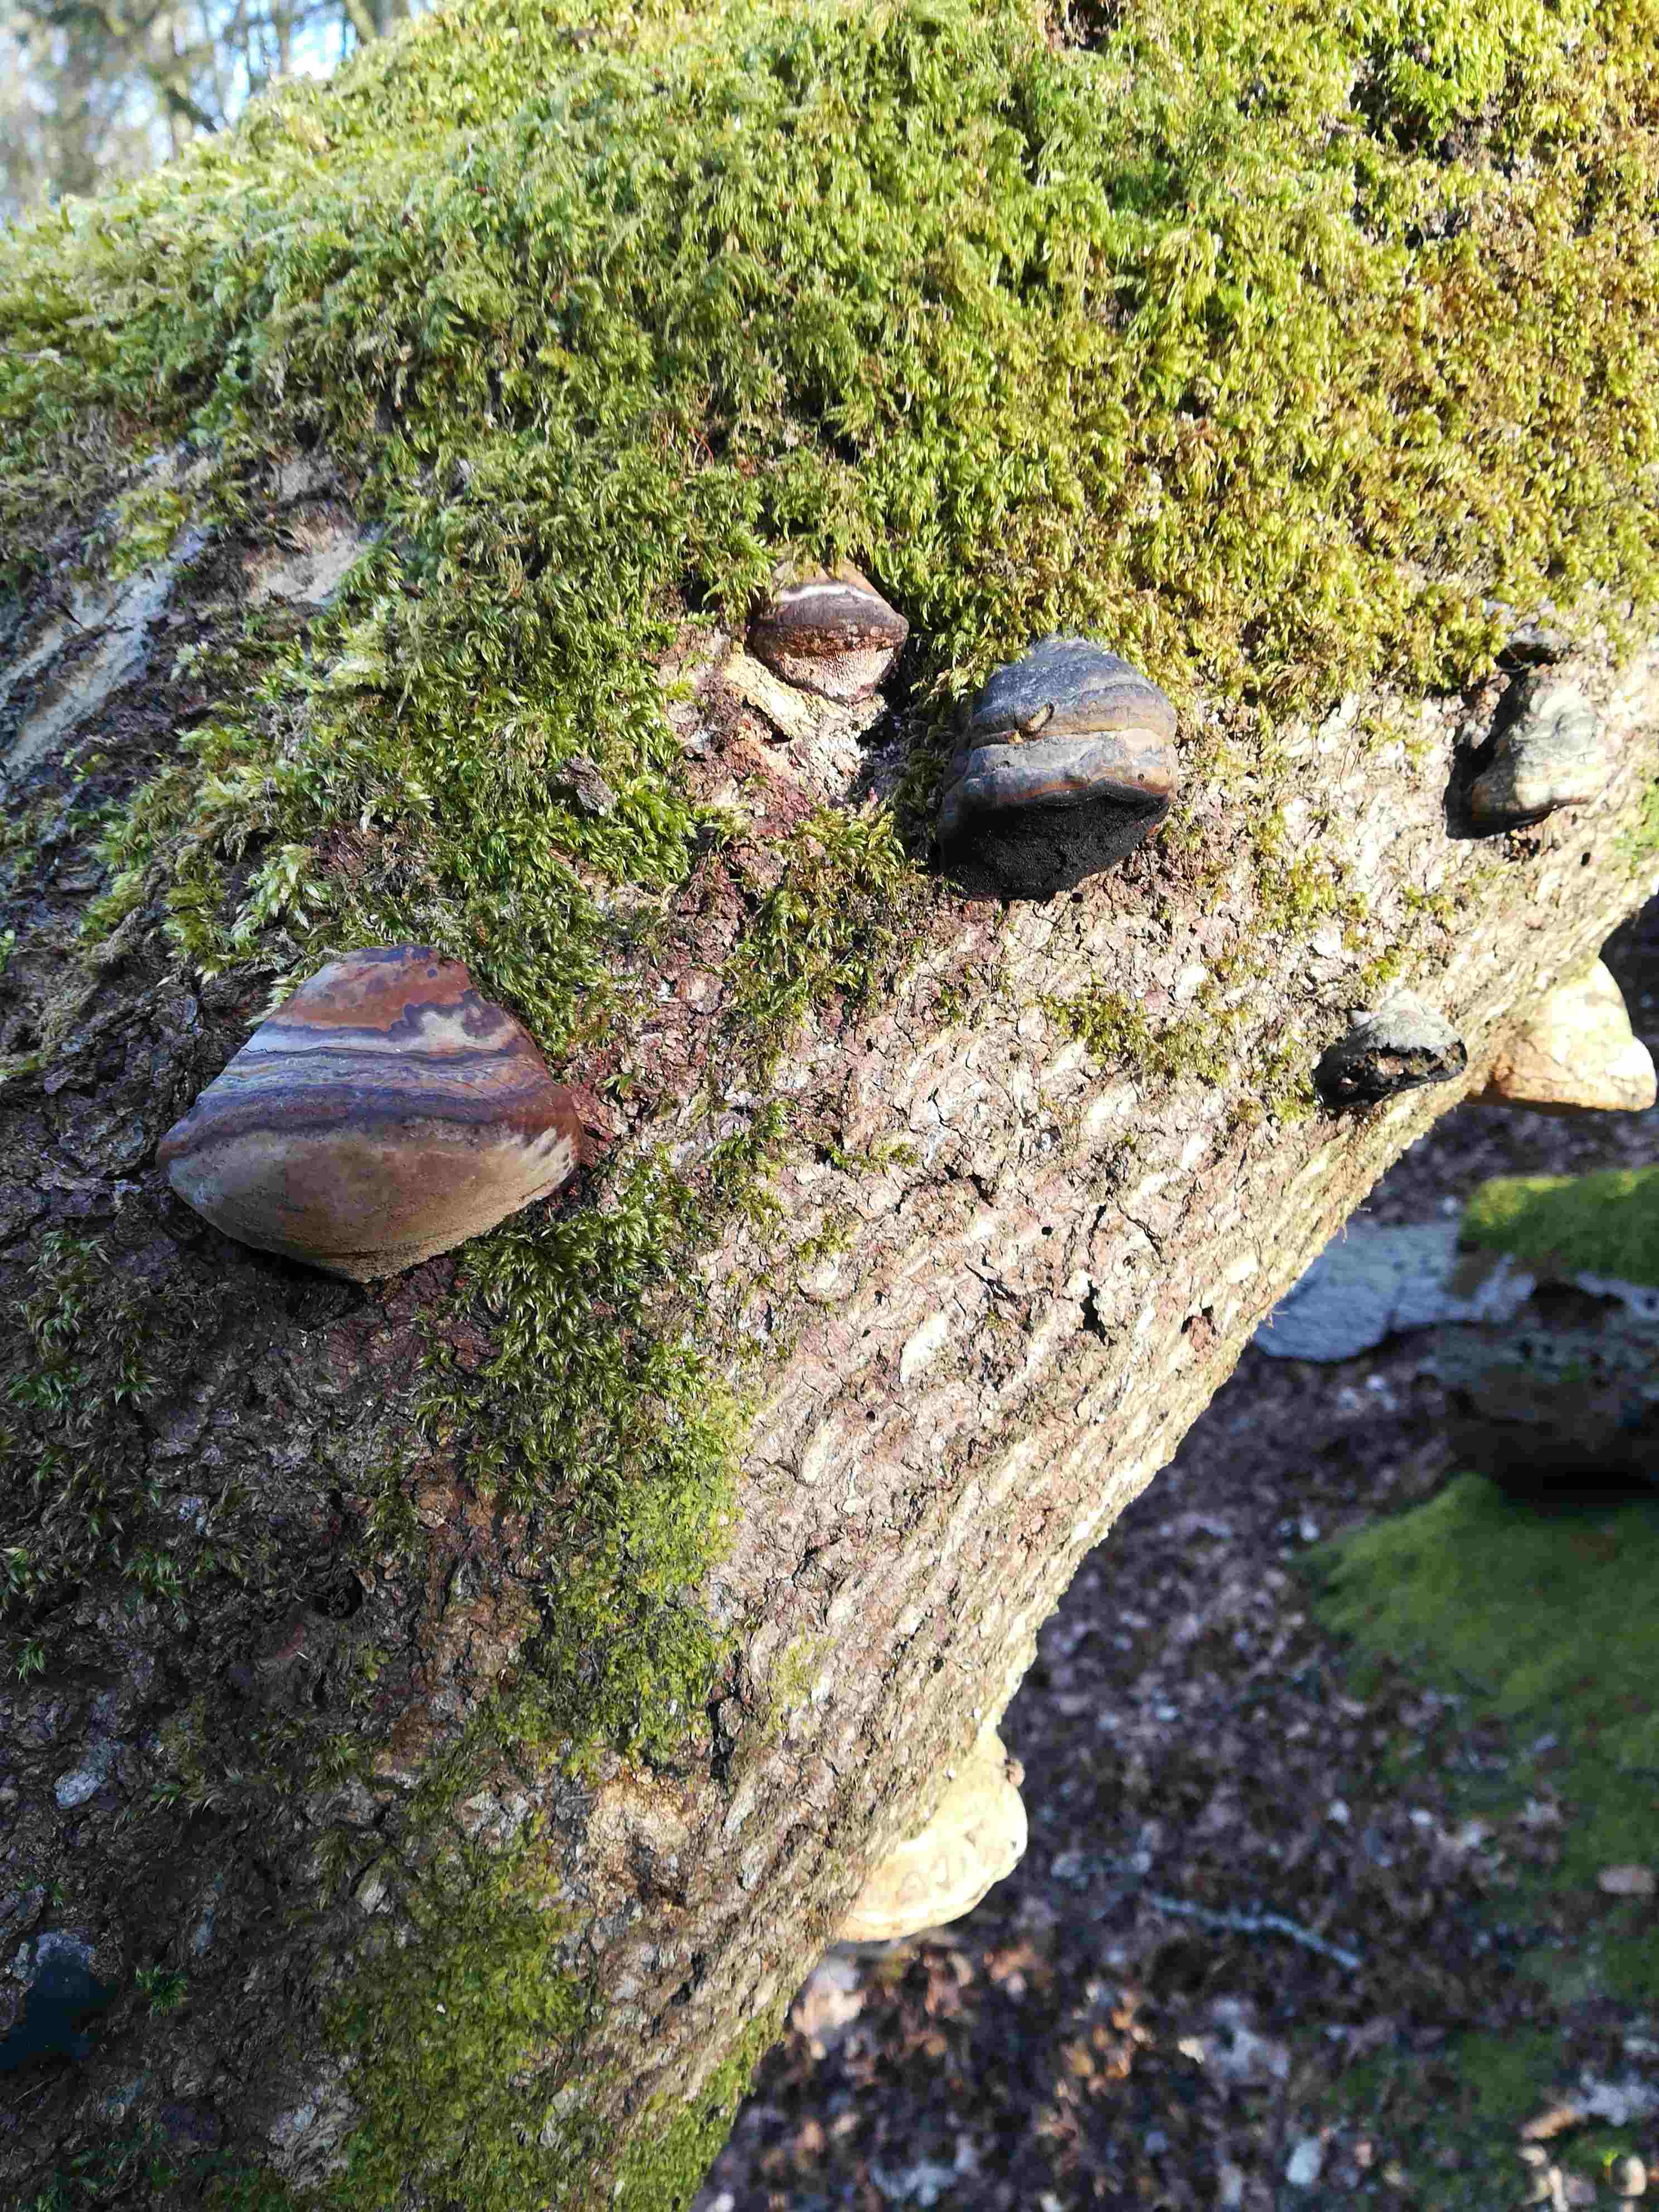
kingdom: Fungi
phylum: Basidiomycota
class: Agaricomycetes
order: Polyporales
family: Polyporaceae
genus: Fomes
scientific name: Fomes fomentarius
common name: tøndersvamp
